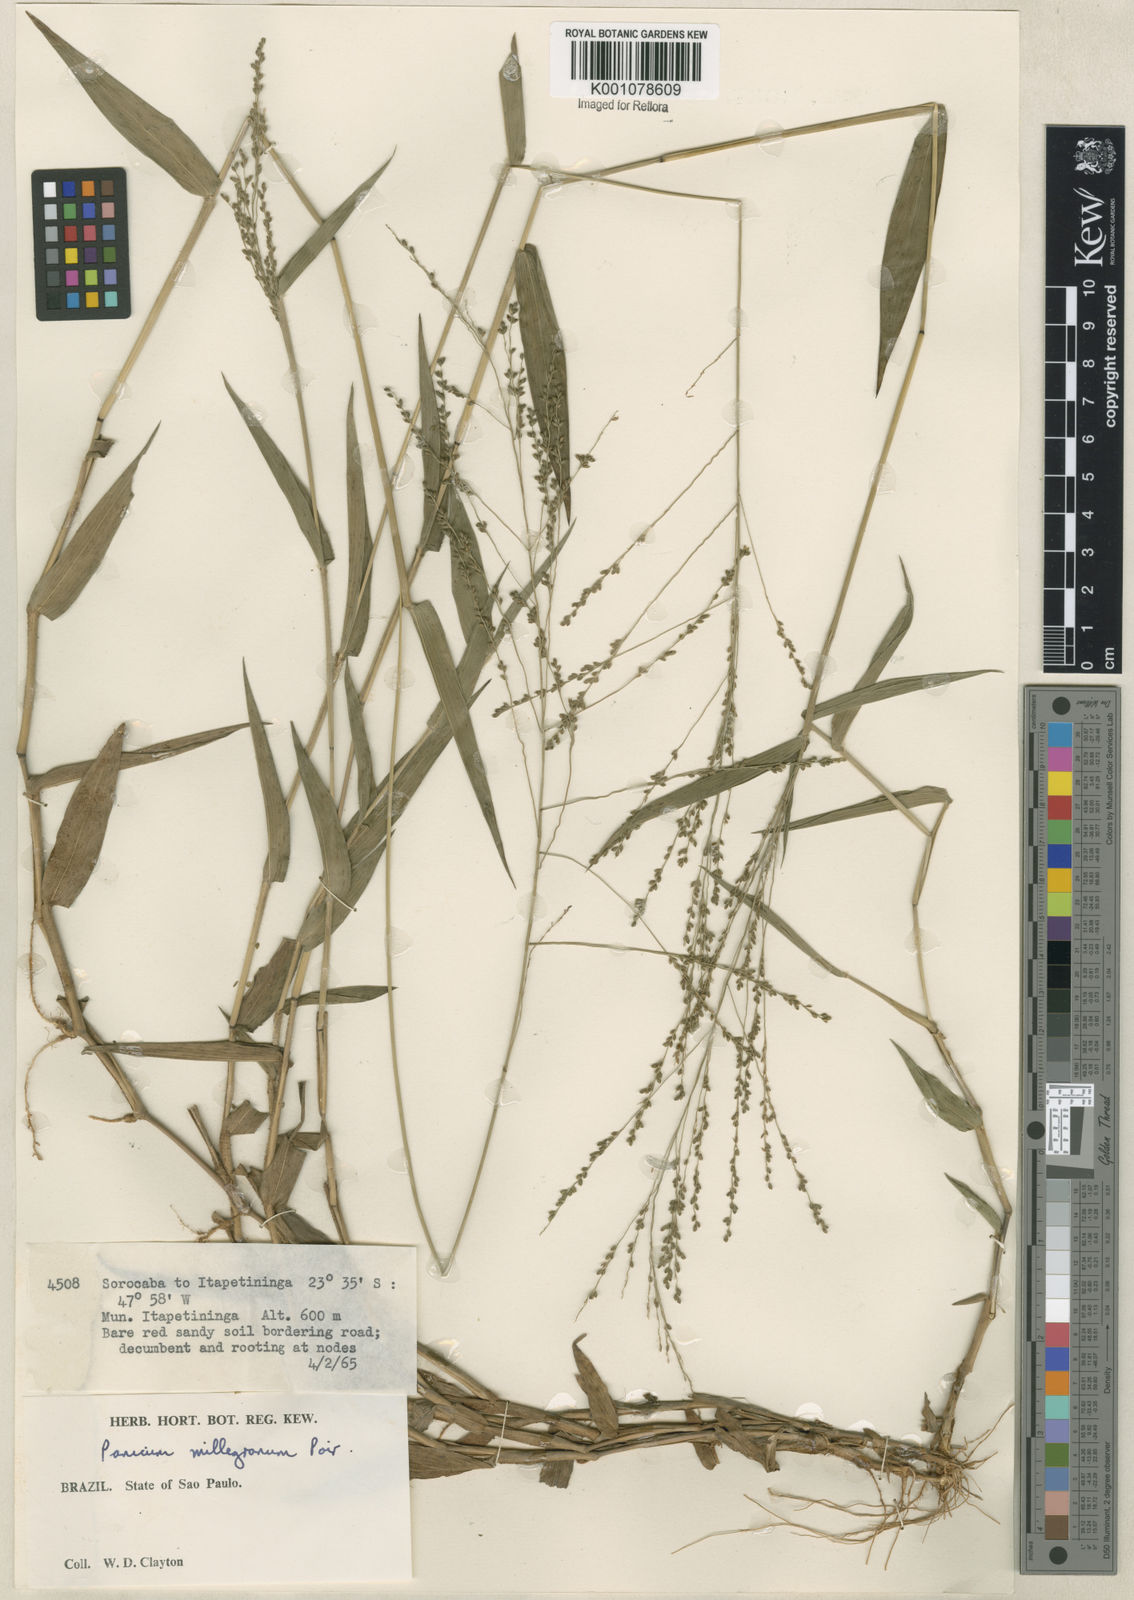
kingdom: Plantae
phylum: Tracheophyta
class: Liliopsida
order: Poales
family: Poaceae
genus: Panicum
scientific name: Panicum sellowii
